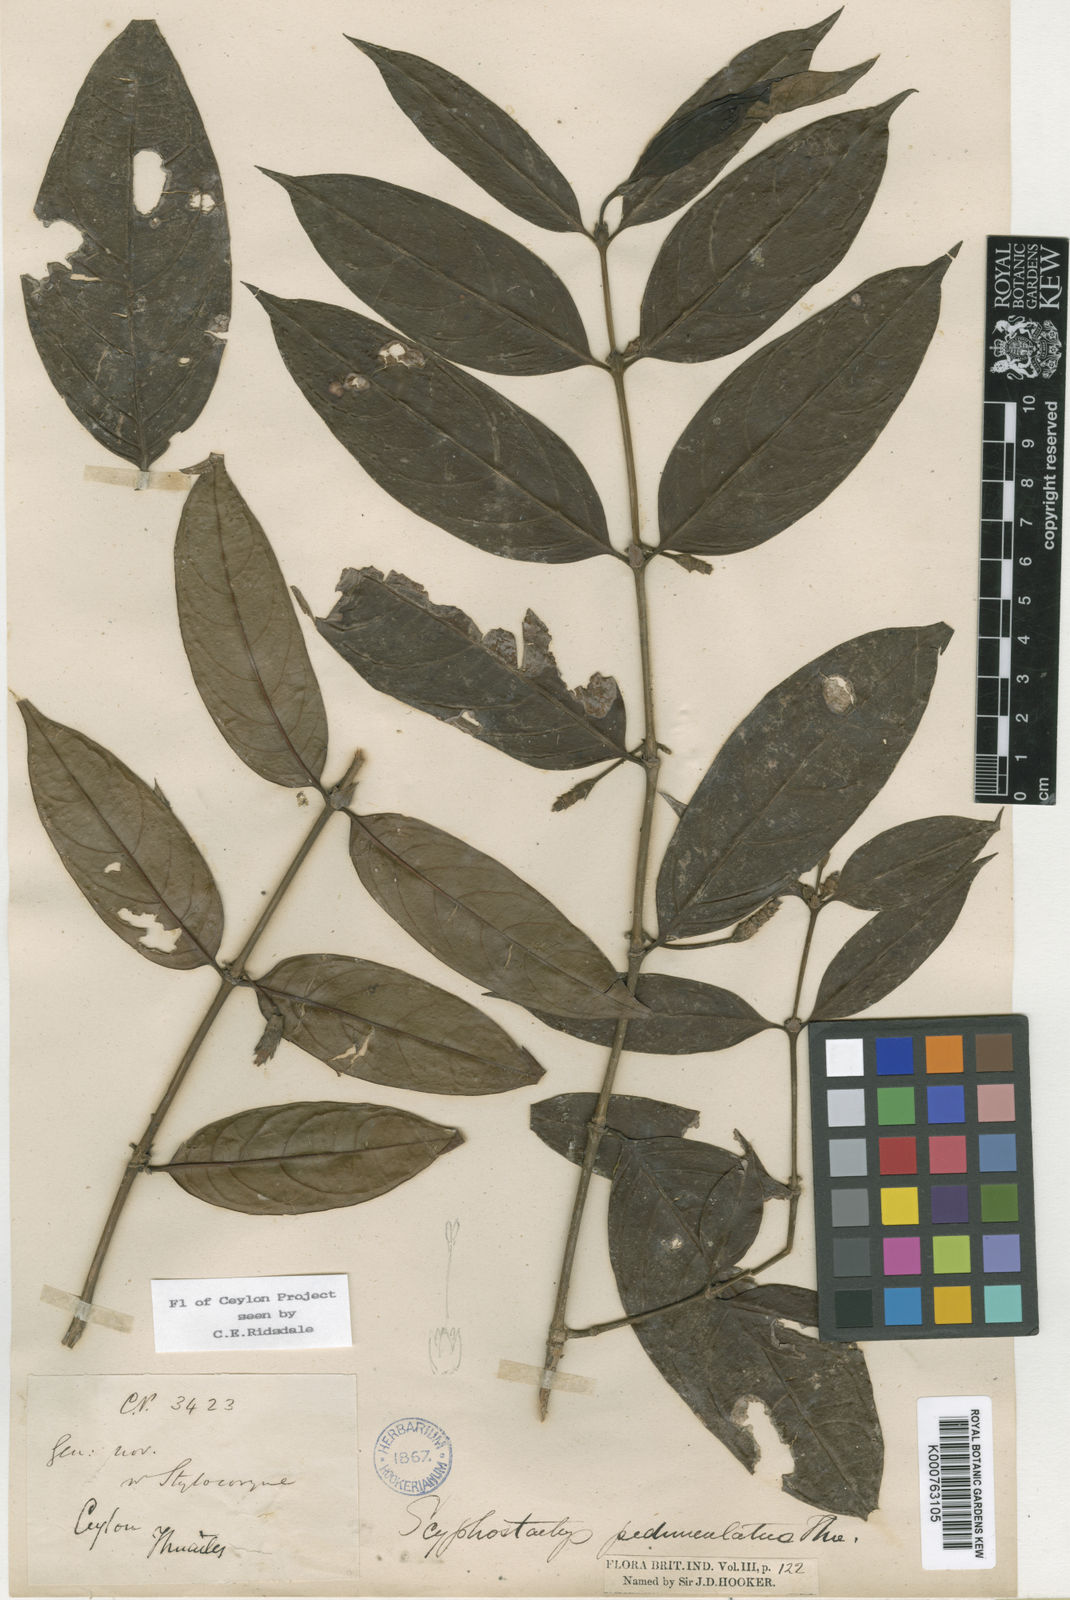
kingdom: Plantae
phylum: Tracheophyta
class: Magnoliopsida
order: Gentianales
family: Rubiaceae
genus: Scyphostachys
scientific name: Scyphostachys pedunculatus
